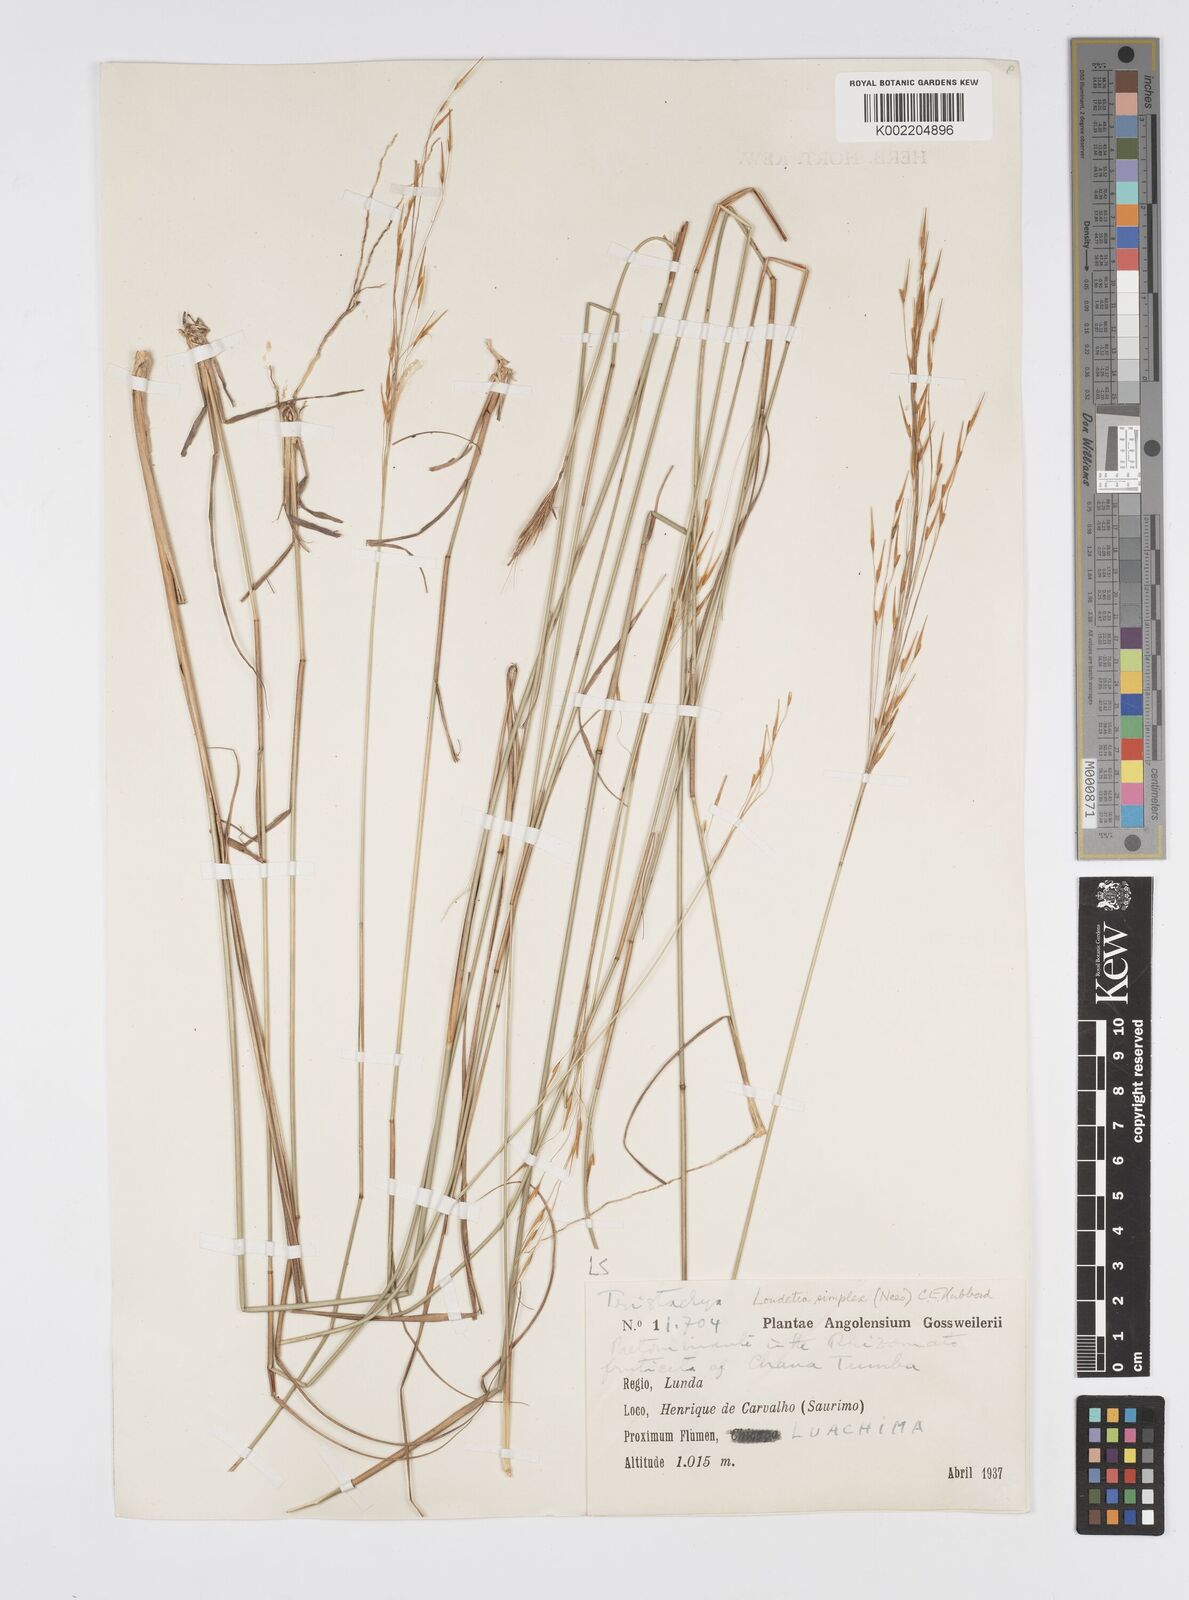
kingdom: Plantae
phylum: Tracheophyta
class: Liliopsida
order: Poales
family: Poaceae
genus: Loudetia
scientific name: Loudetia simplex
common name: Common russet grass
